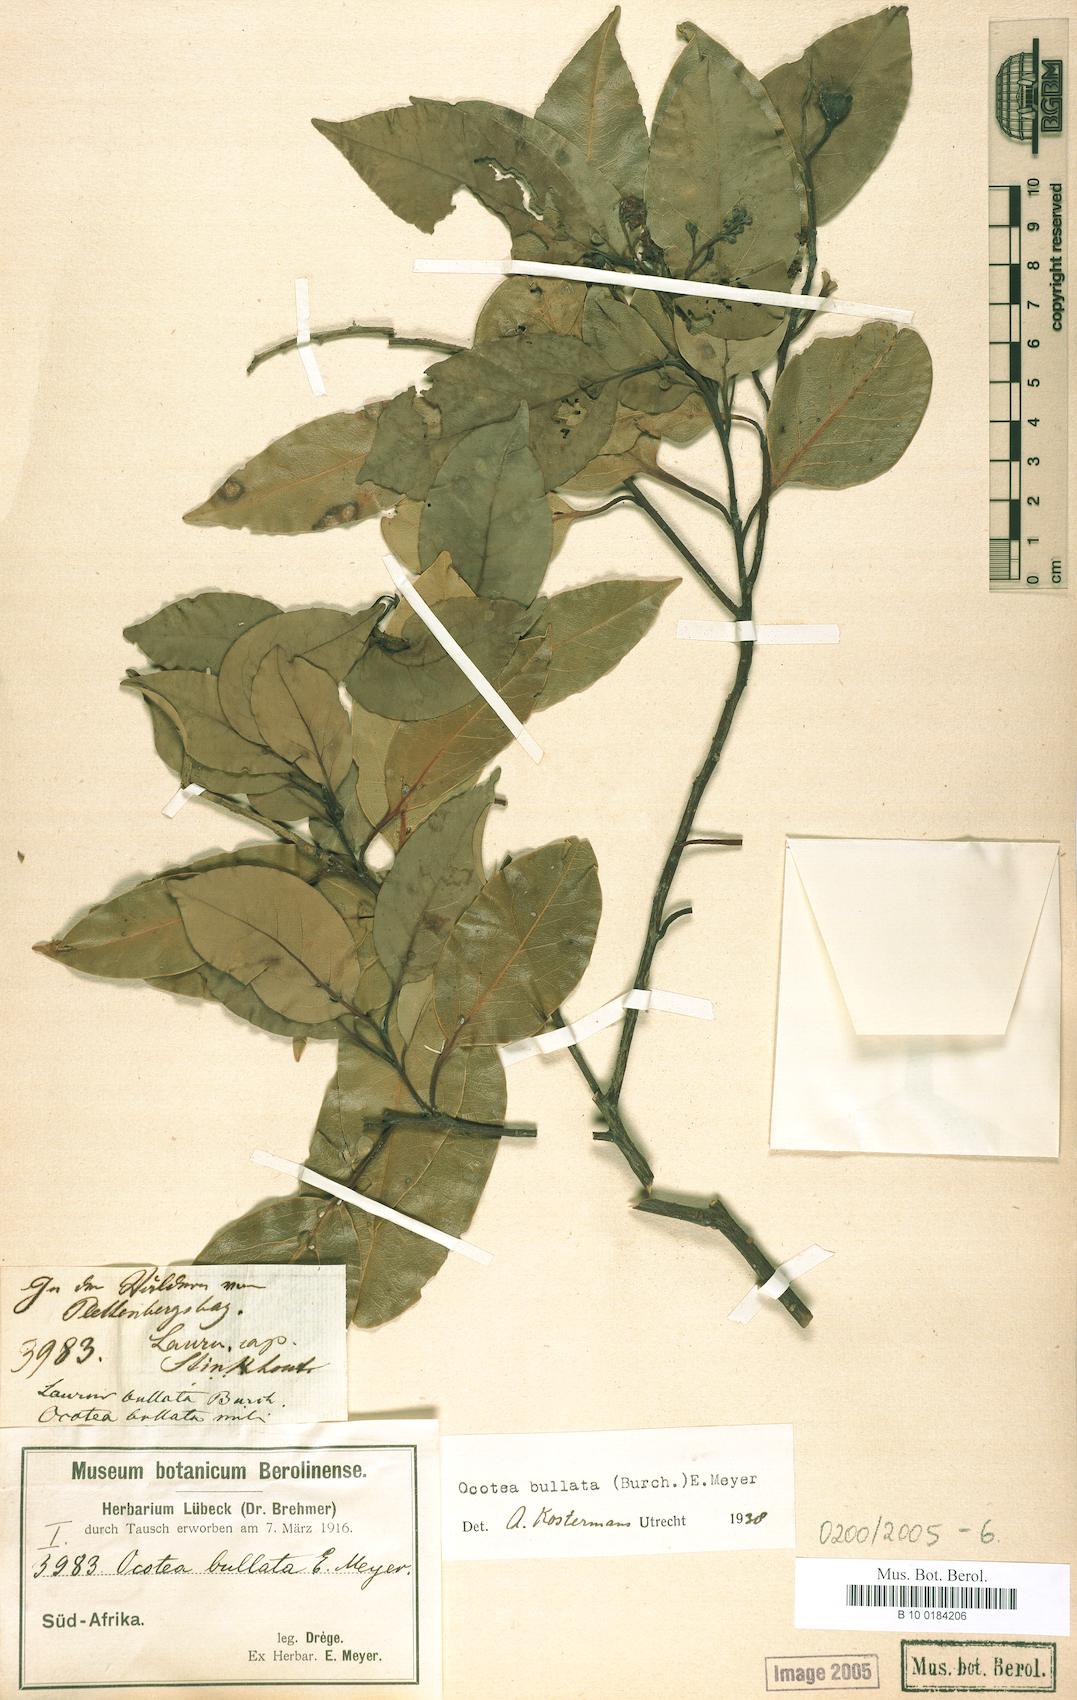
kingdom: Plantae
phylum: Tracheophyta
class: Magnoliopsida
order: Laurales
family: Lauraceae
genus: Ocotea
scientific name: Ocotea bullata
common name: Black stinkwood
